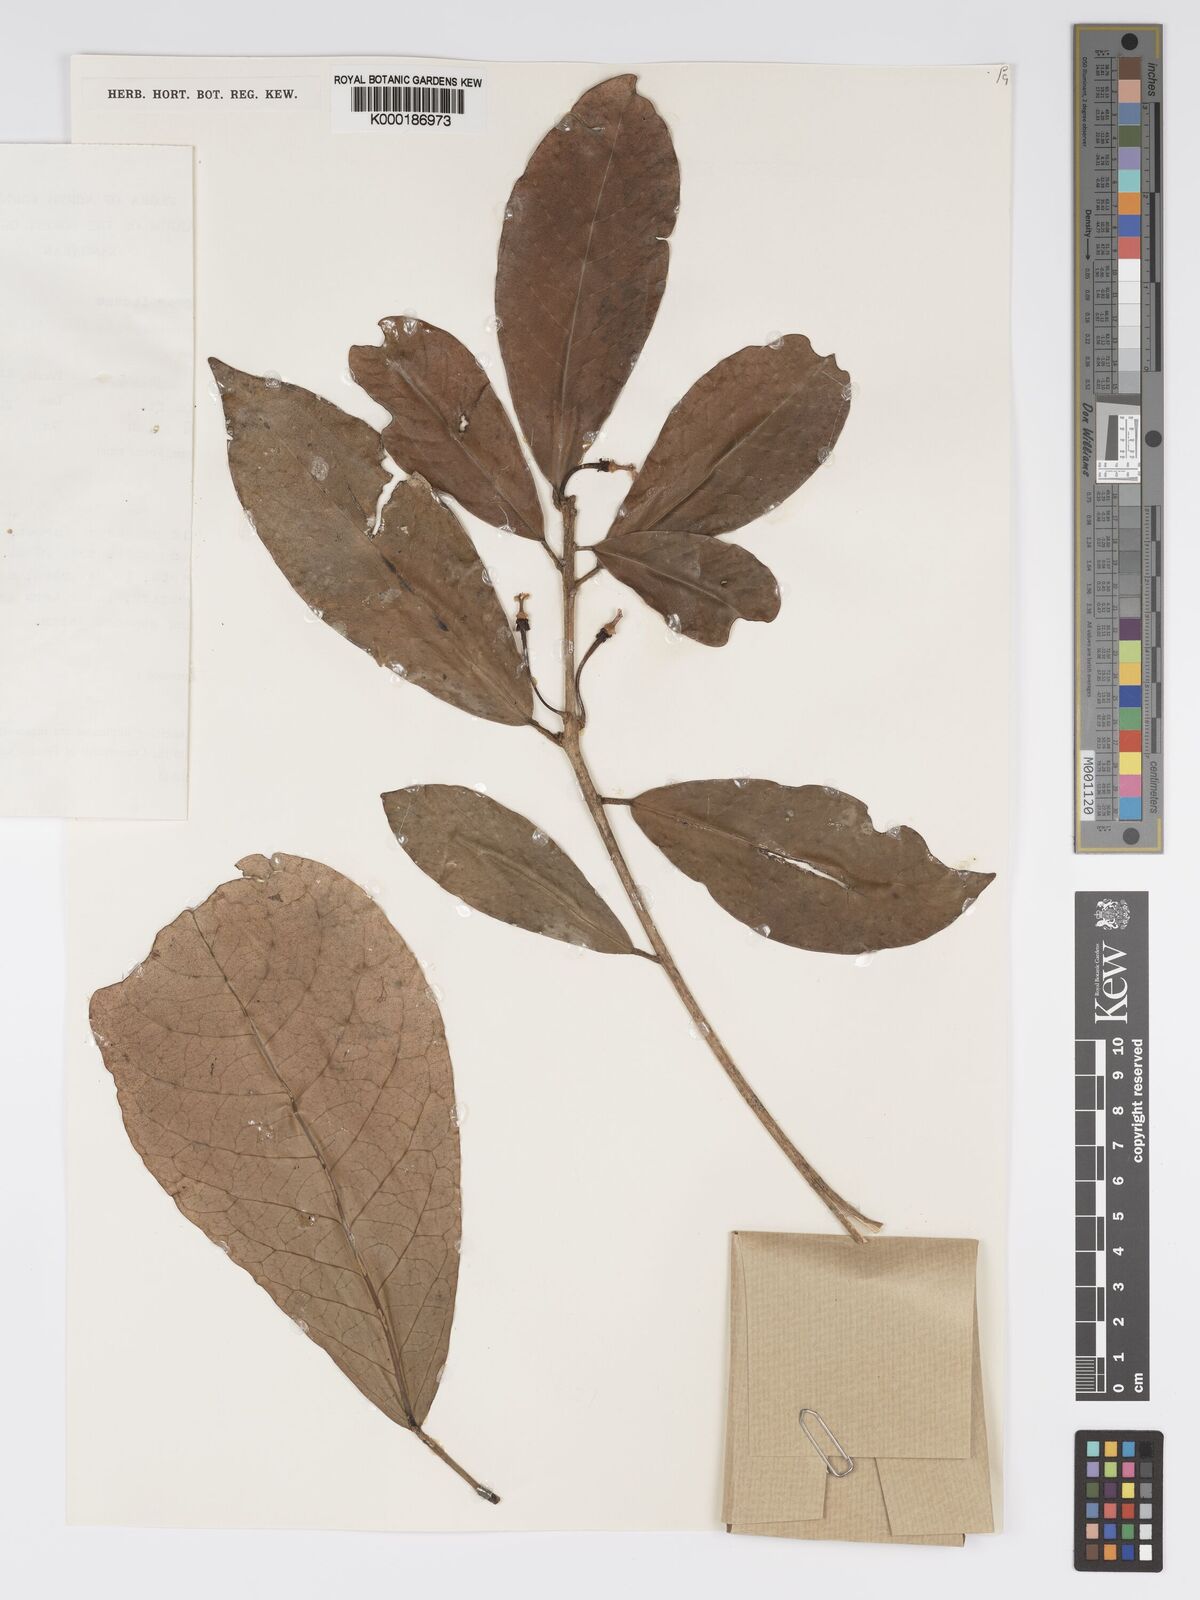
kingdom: Plantae
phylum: Tracheophyta
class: Magnoliopsida
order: Malpighiales
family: Phyllanthaceae
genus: Actephila
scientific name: Actephila
